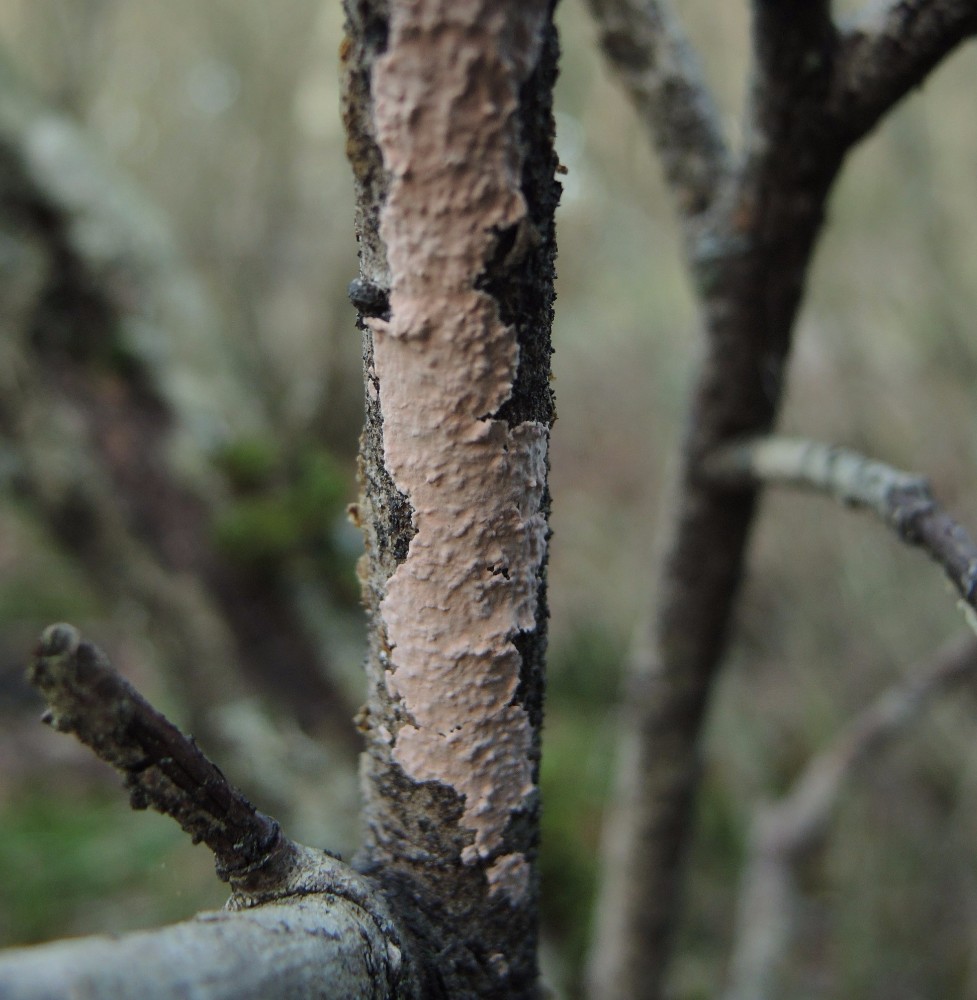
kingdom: Fungi
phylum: Basidiomycota
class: Agaricomycetes
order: Corticiales
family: Corticiaceae
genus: Corticium
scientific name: Corticium roseum
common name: rosa barkskind
